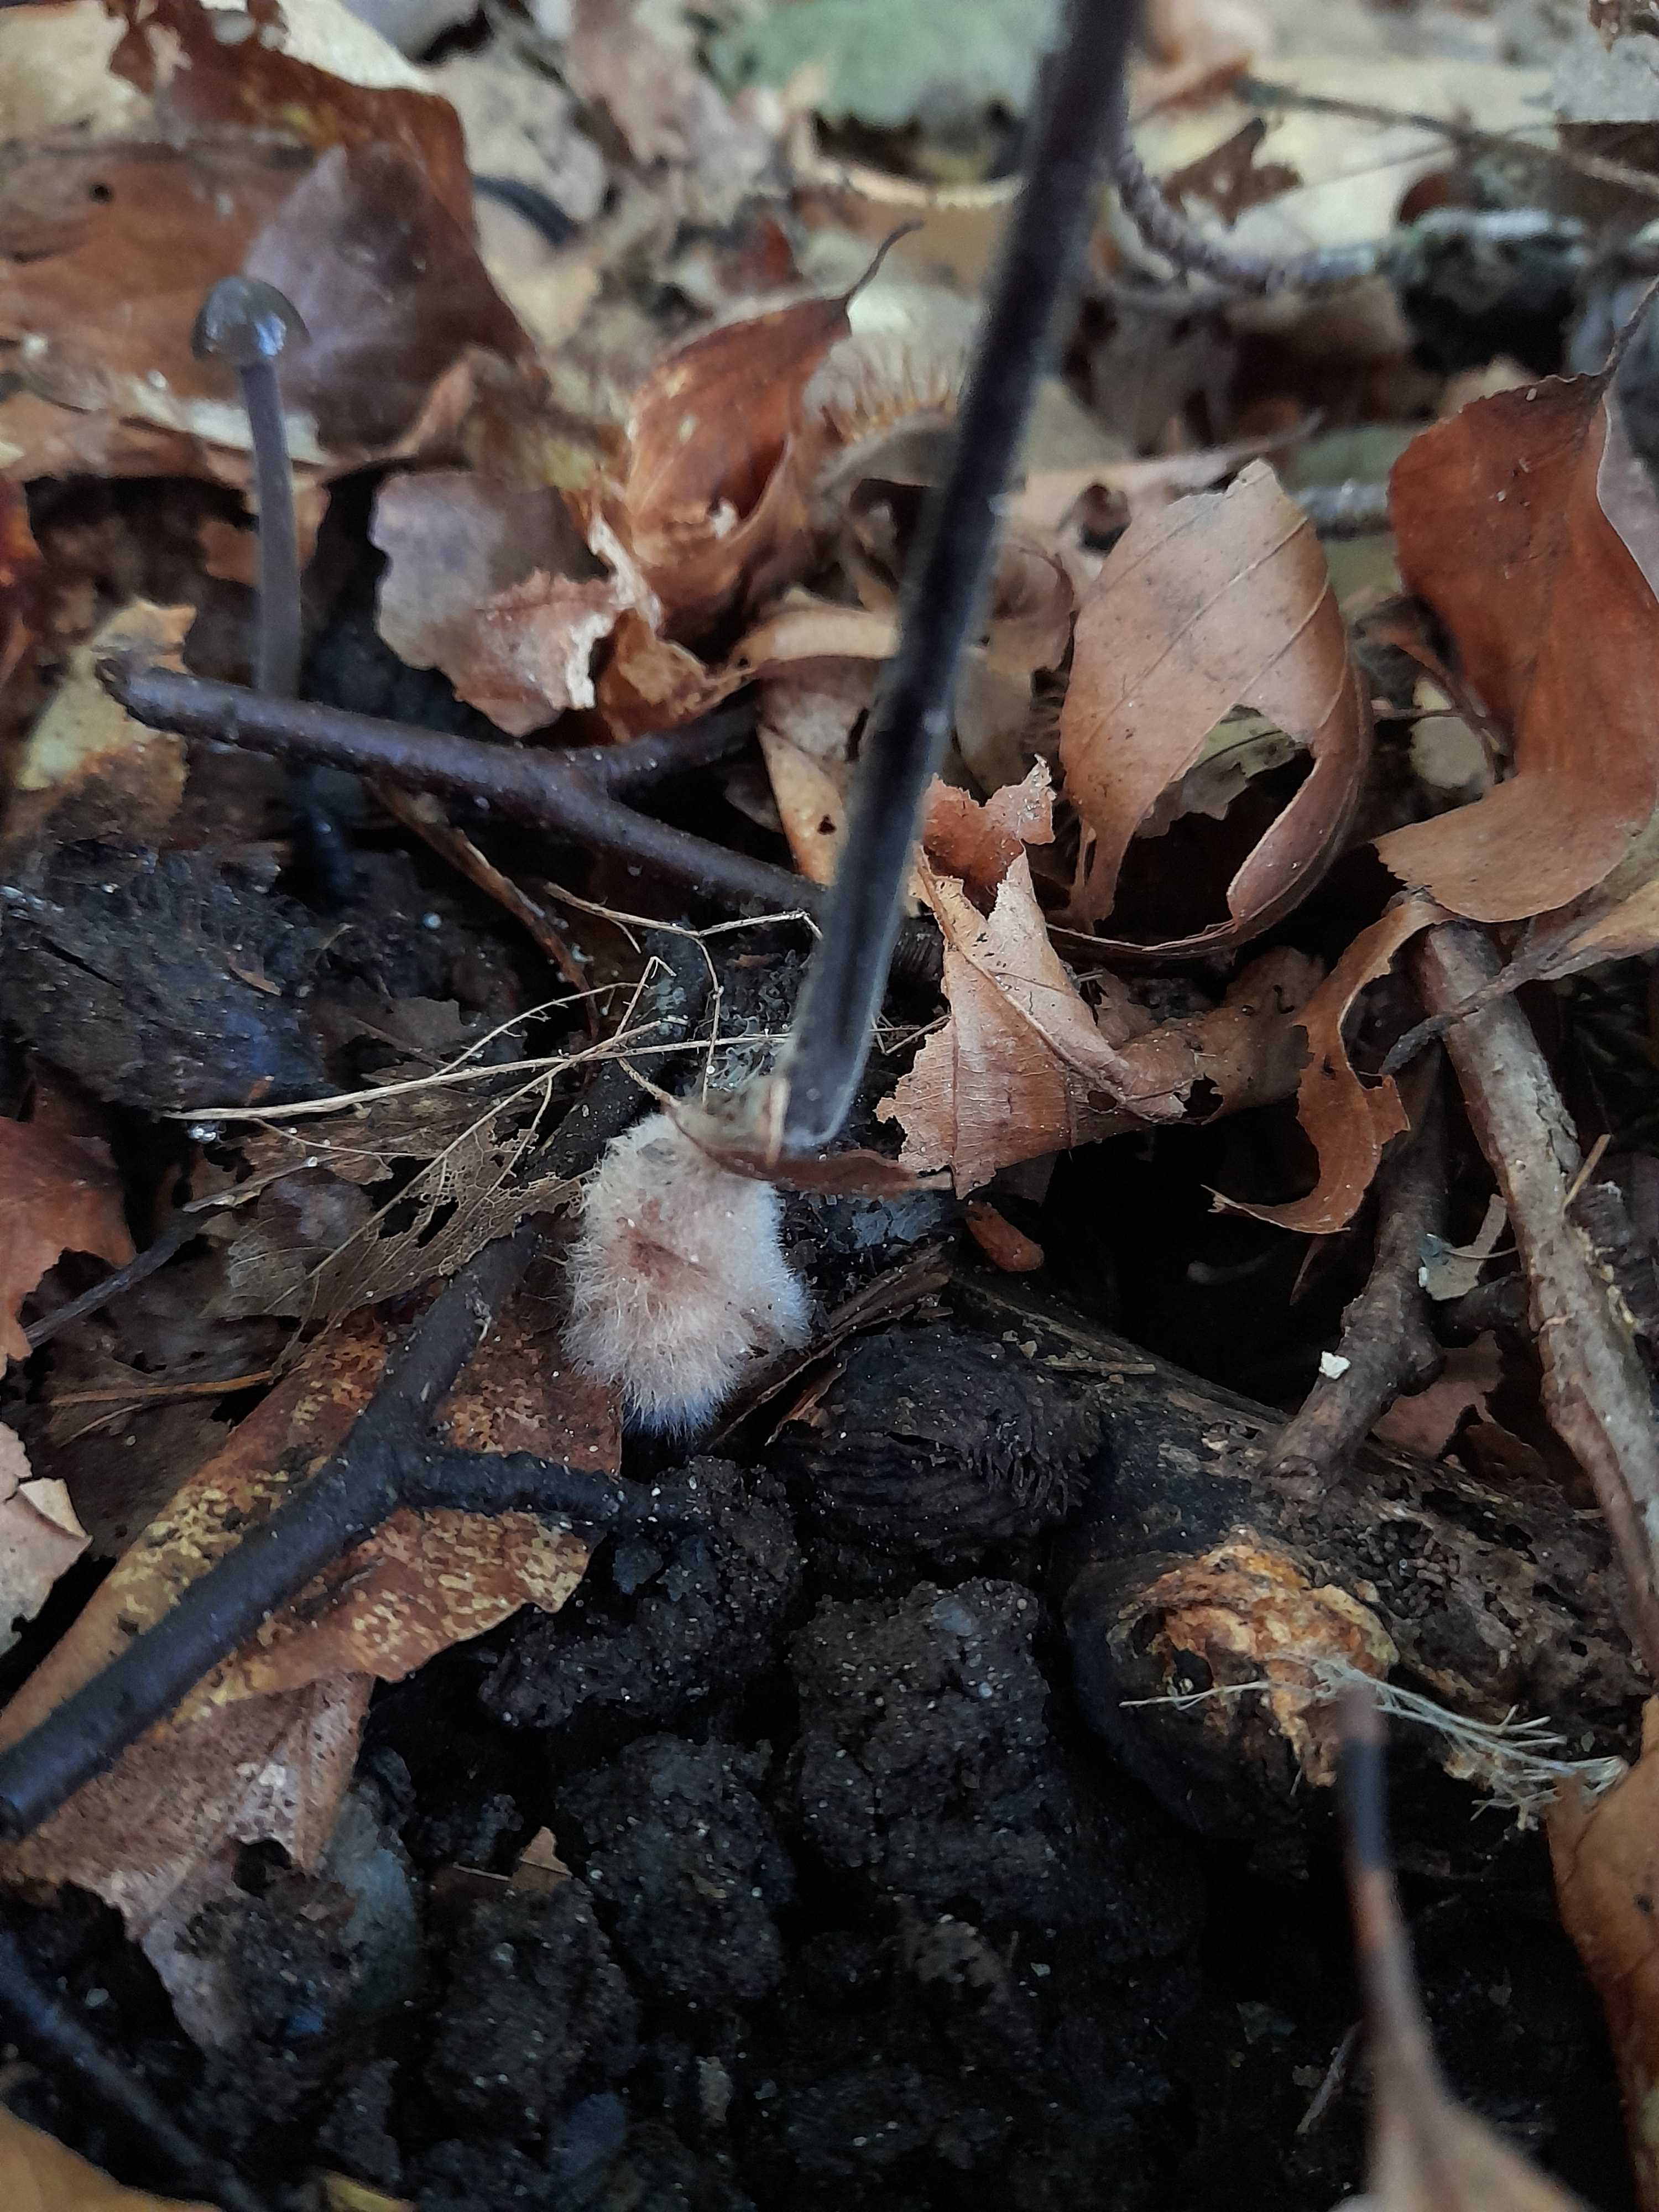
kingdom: Fungi
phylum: Basidiomycota
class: Agaricomycetes
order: Agaricales
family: Omphalotaceae
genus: Mycetinis
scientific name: Mycetinis alliaceus
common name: stor løghat
